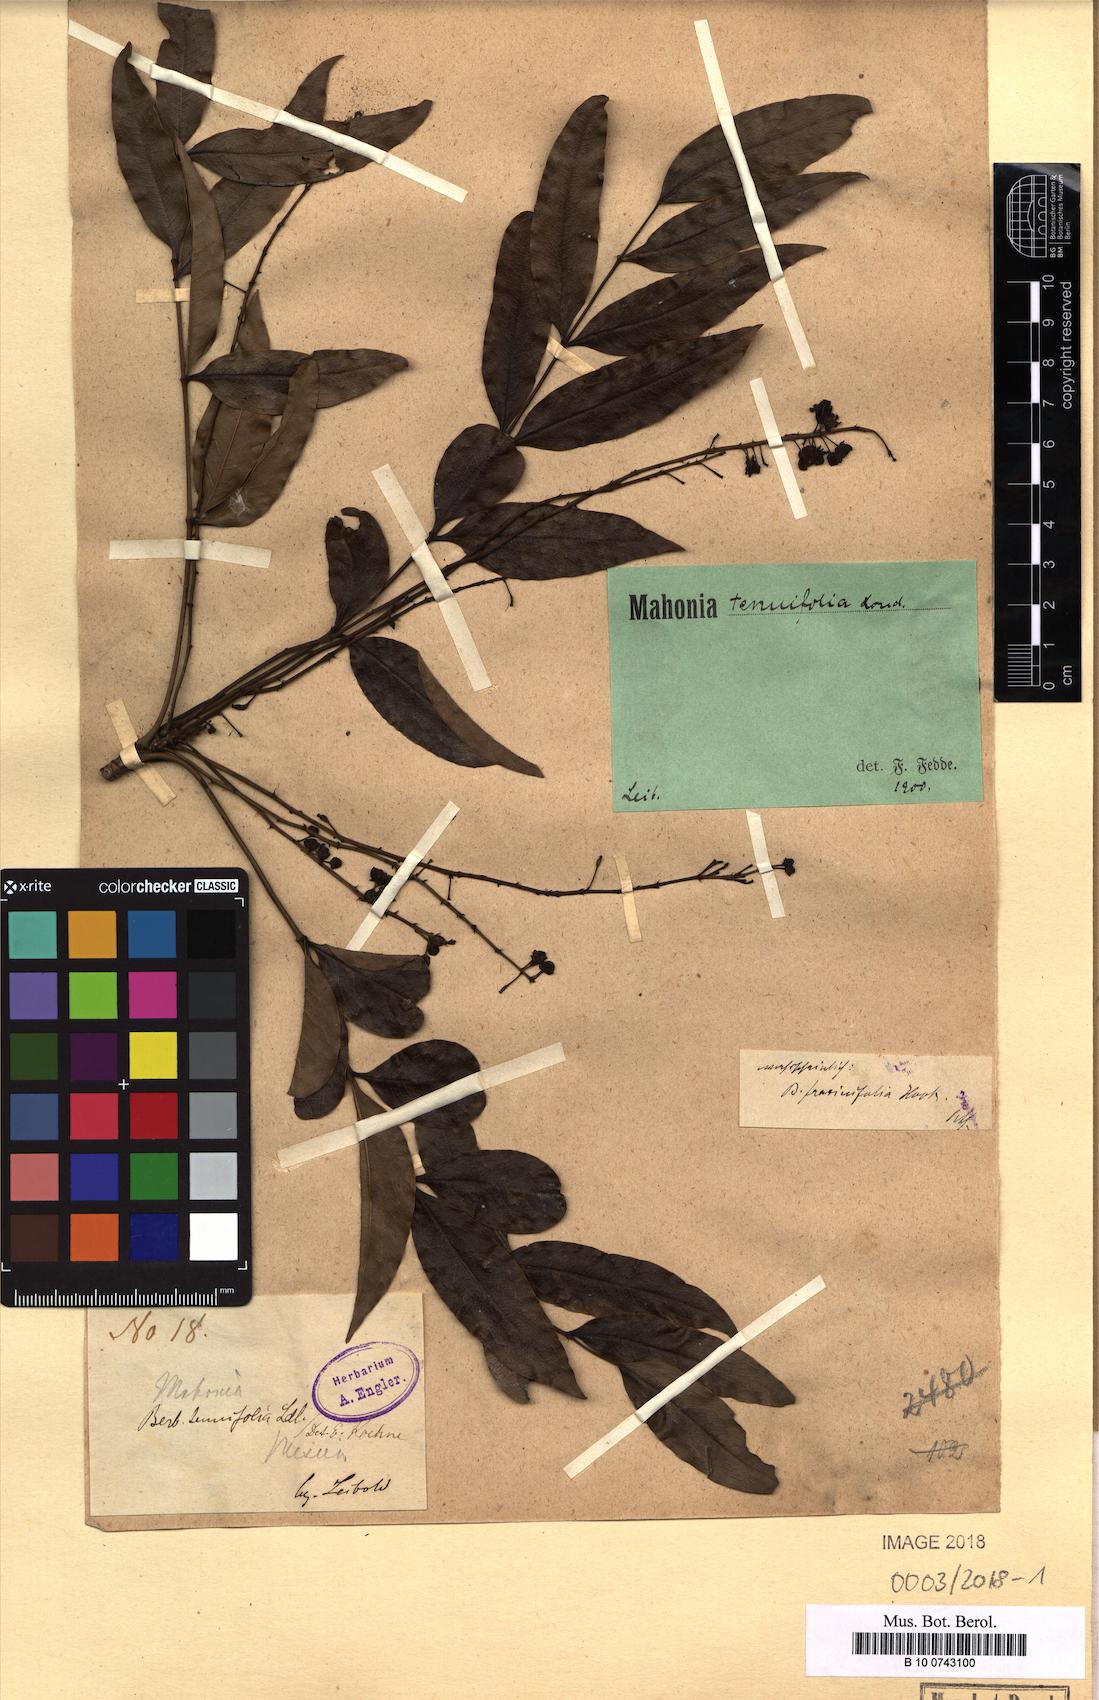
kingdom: Plantae
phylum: Tracheophyta
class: Magnoliopsida
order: Ranunculales
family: Berberidaceae
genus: Mahonia
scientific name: Mahonia tenuifolia
